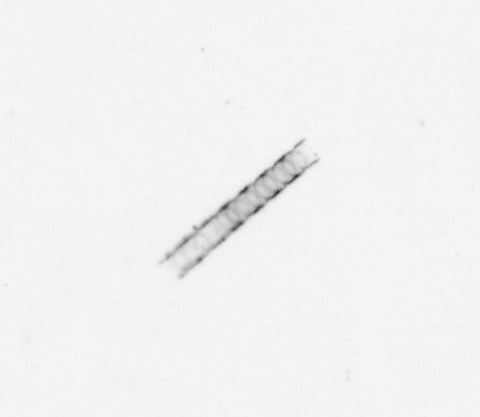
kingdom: Chromista
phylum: Ochrophyta
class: Bacillariophyceae
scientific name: Bacillariophyceae
